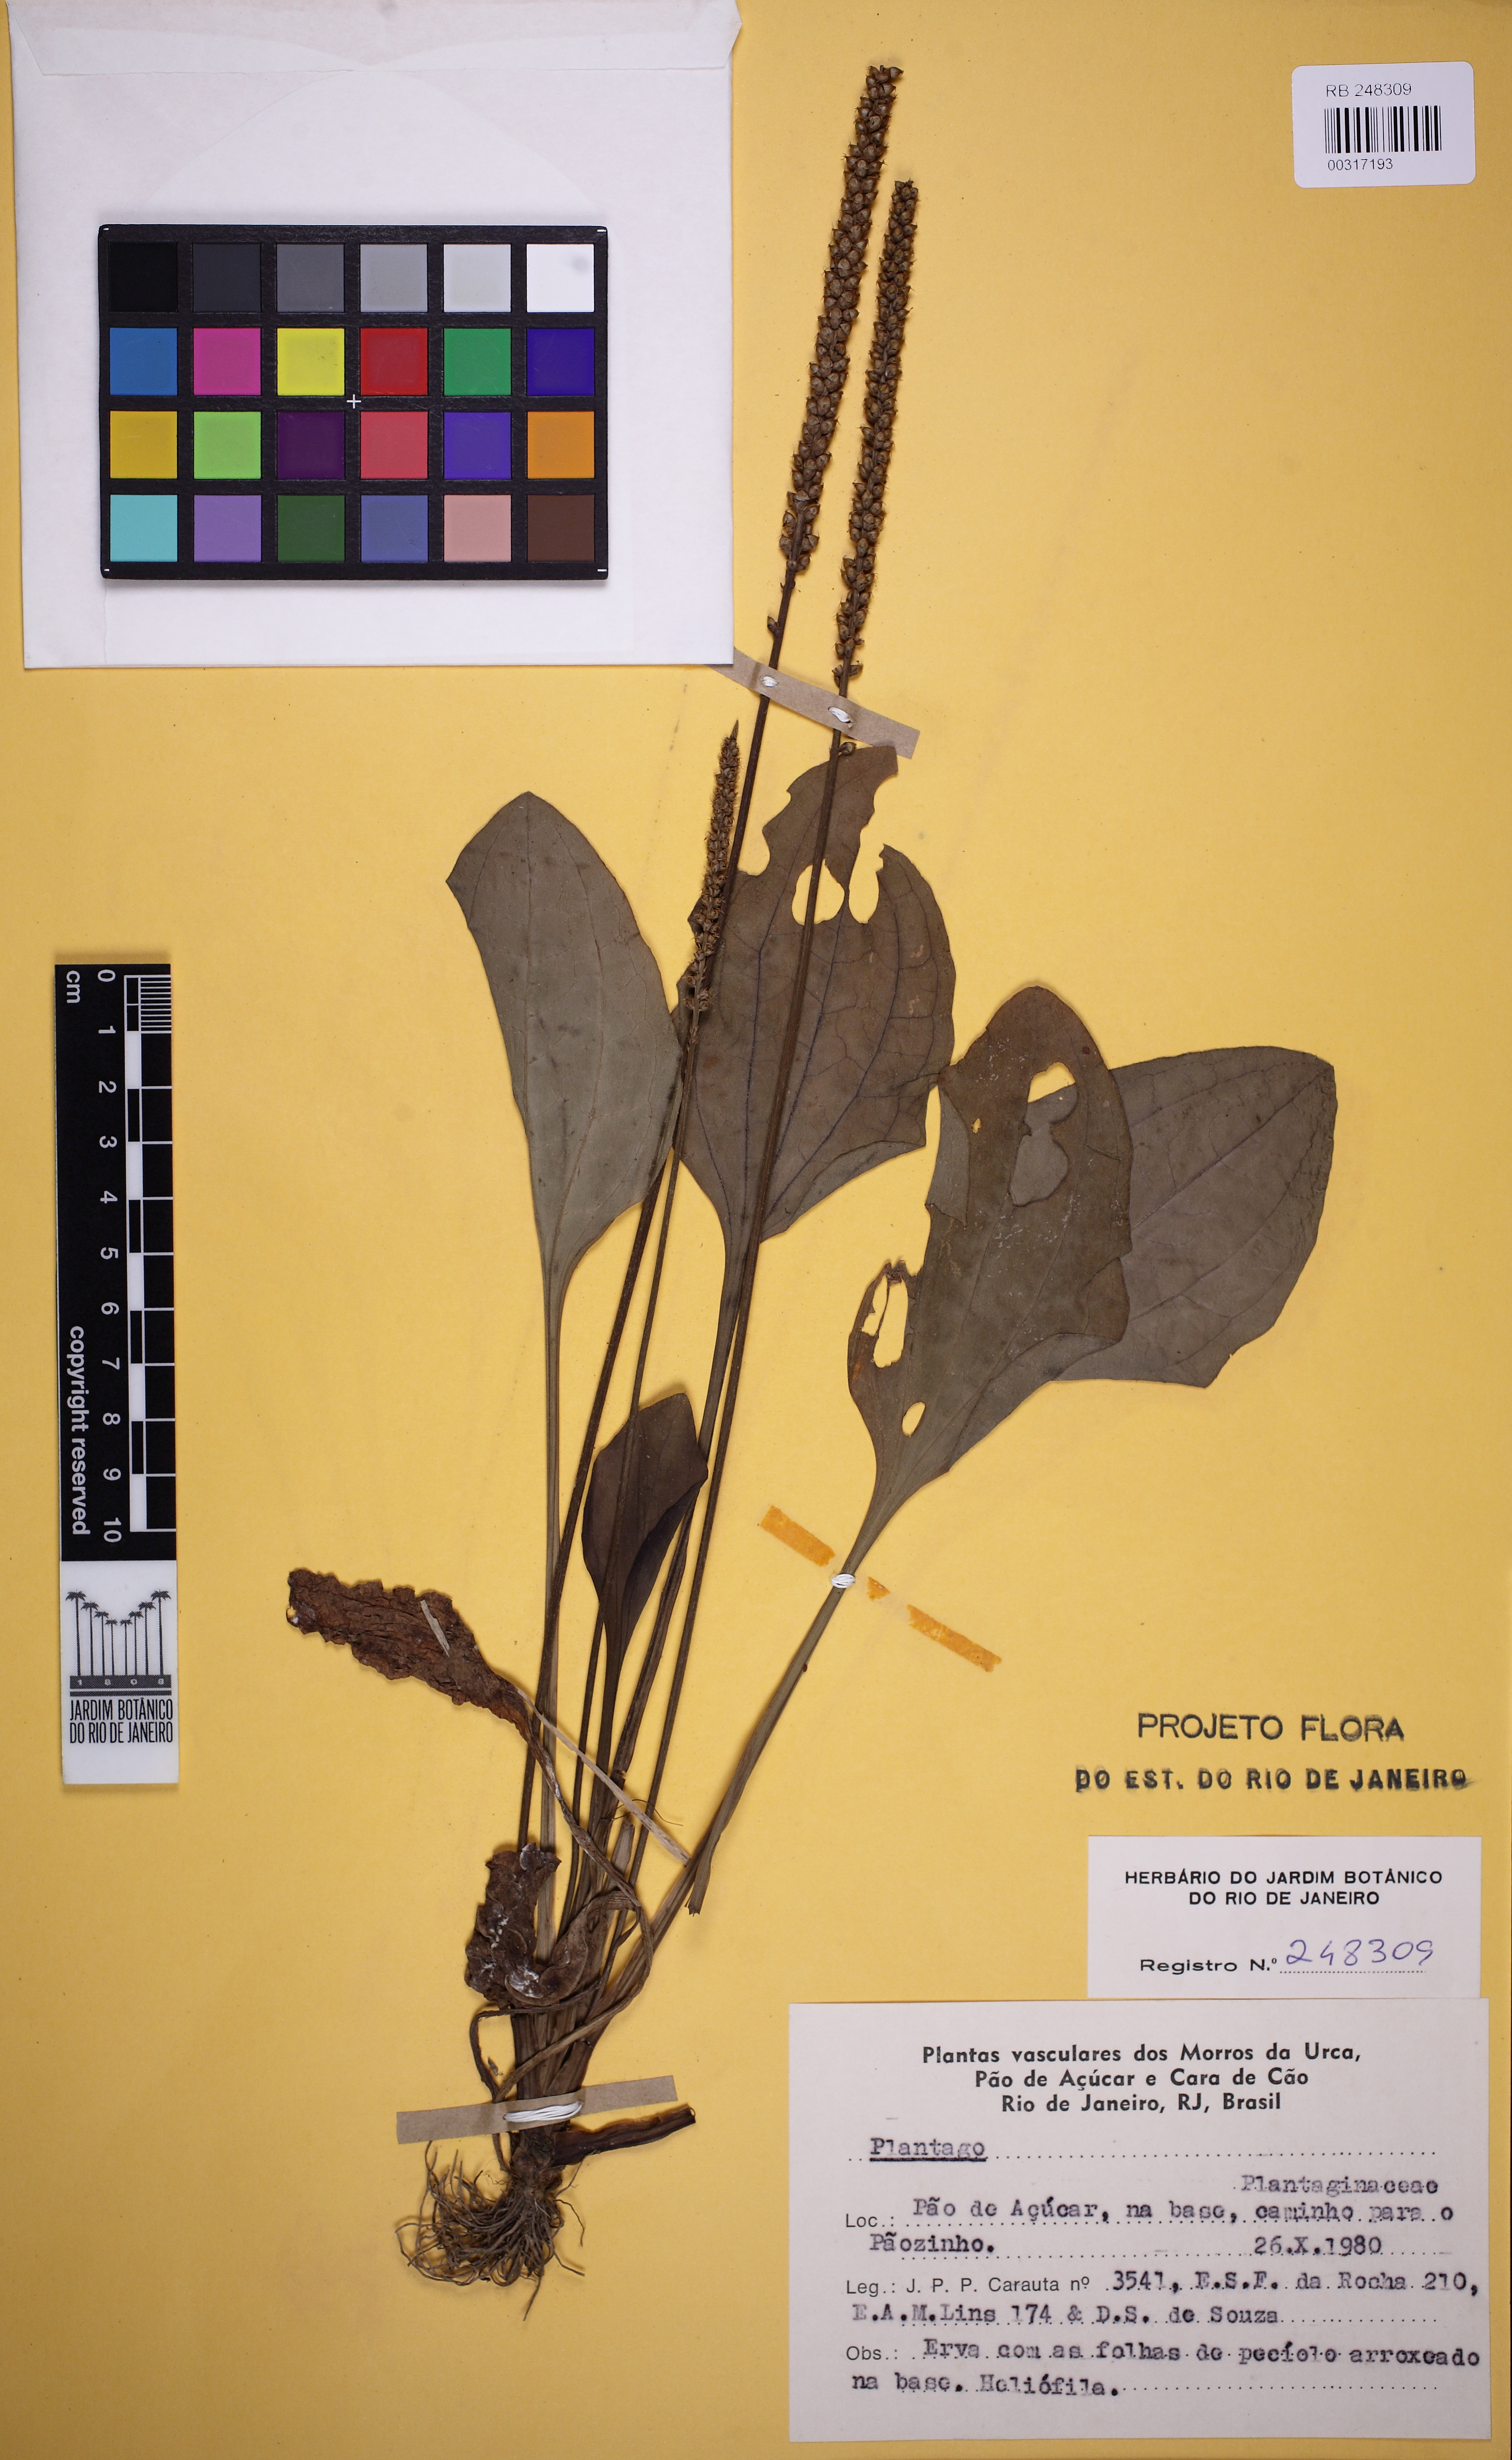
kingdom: Plantae
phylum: Tracheophyta
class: Magnoliopsida
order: Lamiales
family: Plantaginaceae
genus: Plantago
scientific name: Plantago
